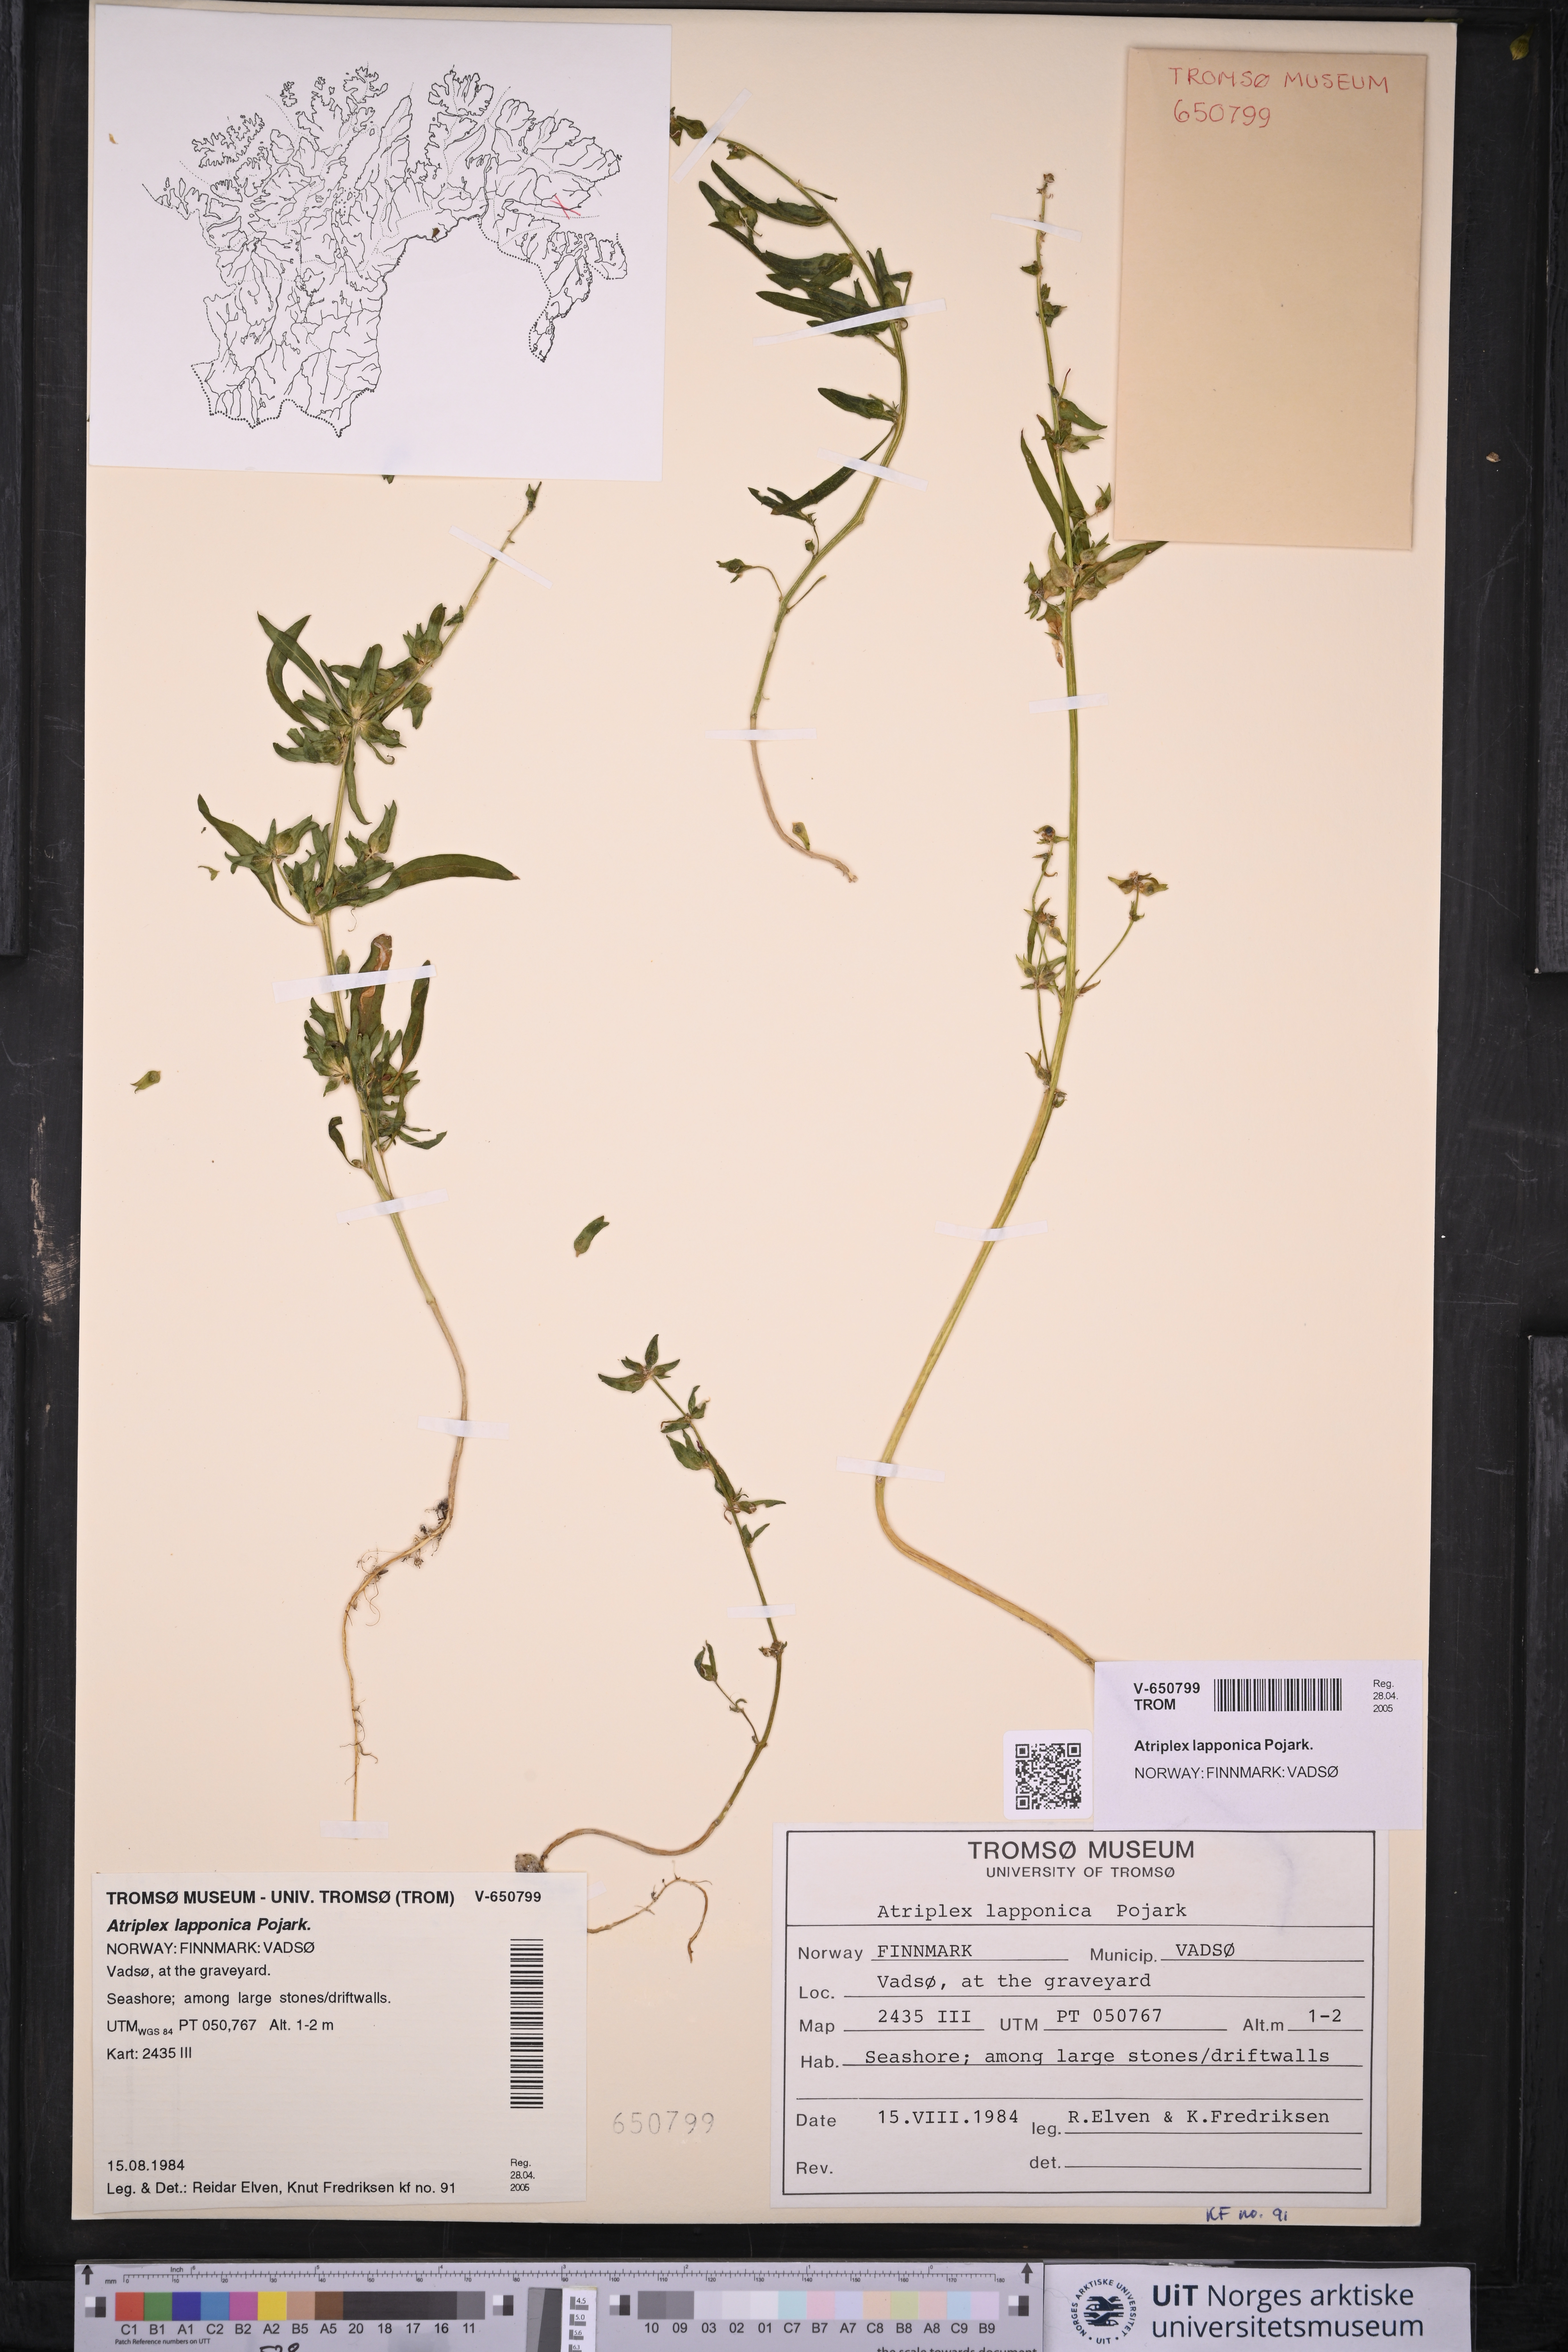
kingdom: Plantae
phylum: Tracheophyta
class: Magnoliopsida
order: Caryophyllales
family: Amaranthaceae
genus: Atriplex
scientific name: Atriplex nudicaulis
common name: Baltic orache
